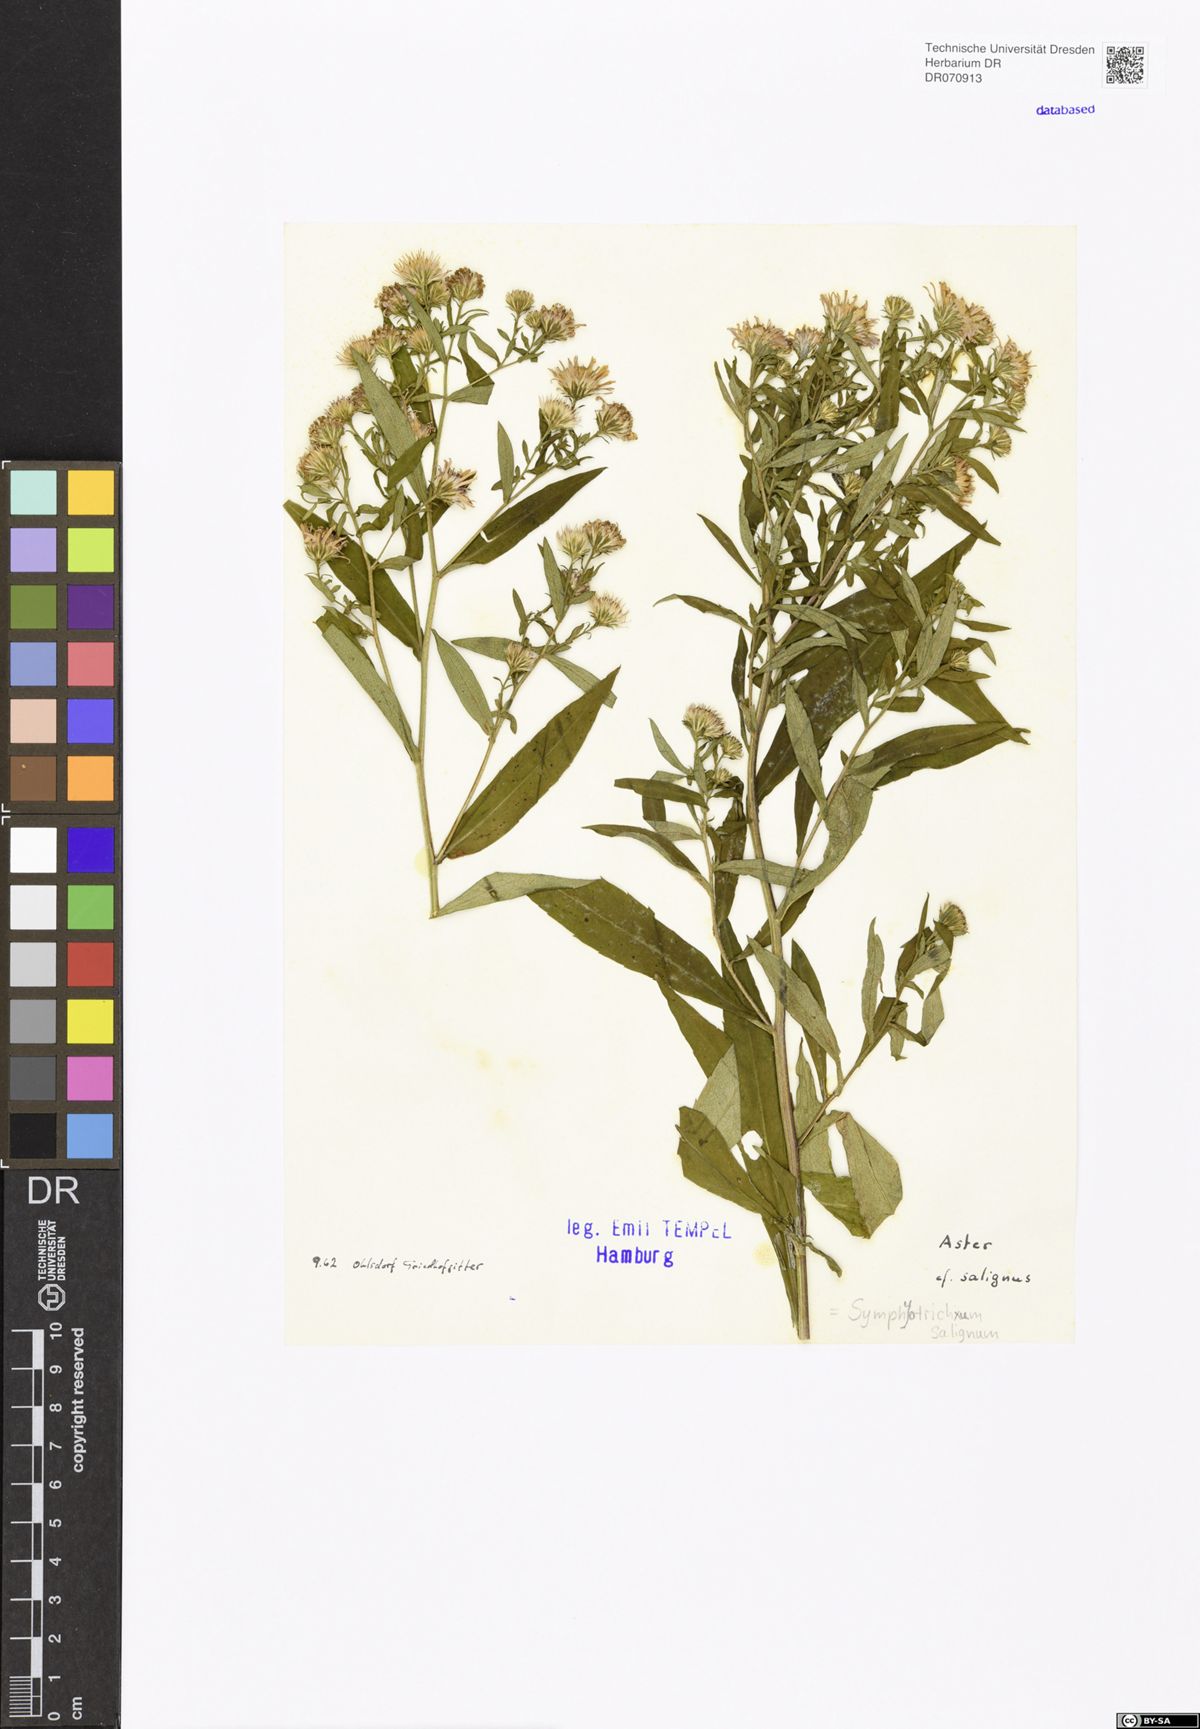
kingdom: Plantae
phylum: Tracheophyta
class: Magnoliopsida
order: Asterales
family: Asteraceae
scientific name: Asteraceae
